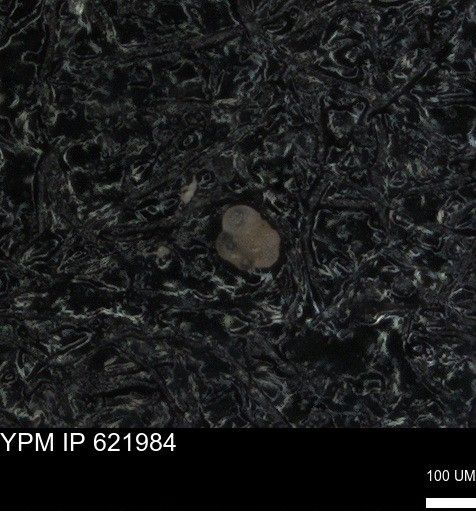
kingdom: Chromista
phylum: Foraminifera
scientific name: Foraminifera
